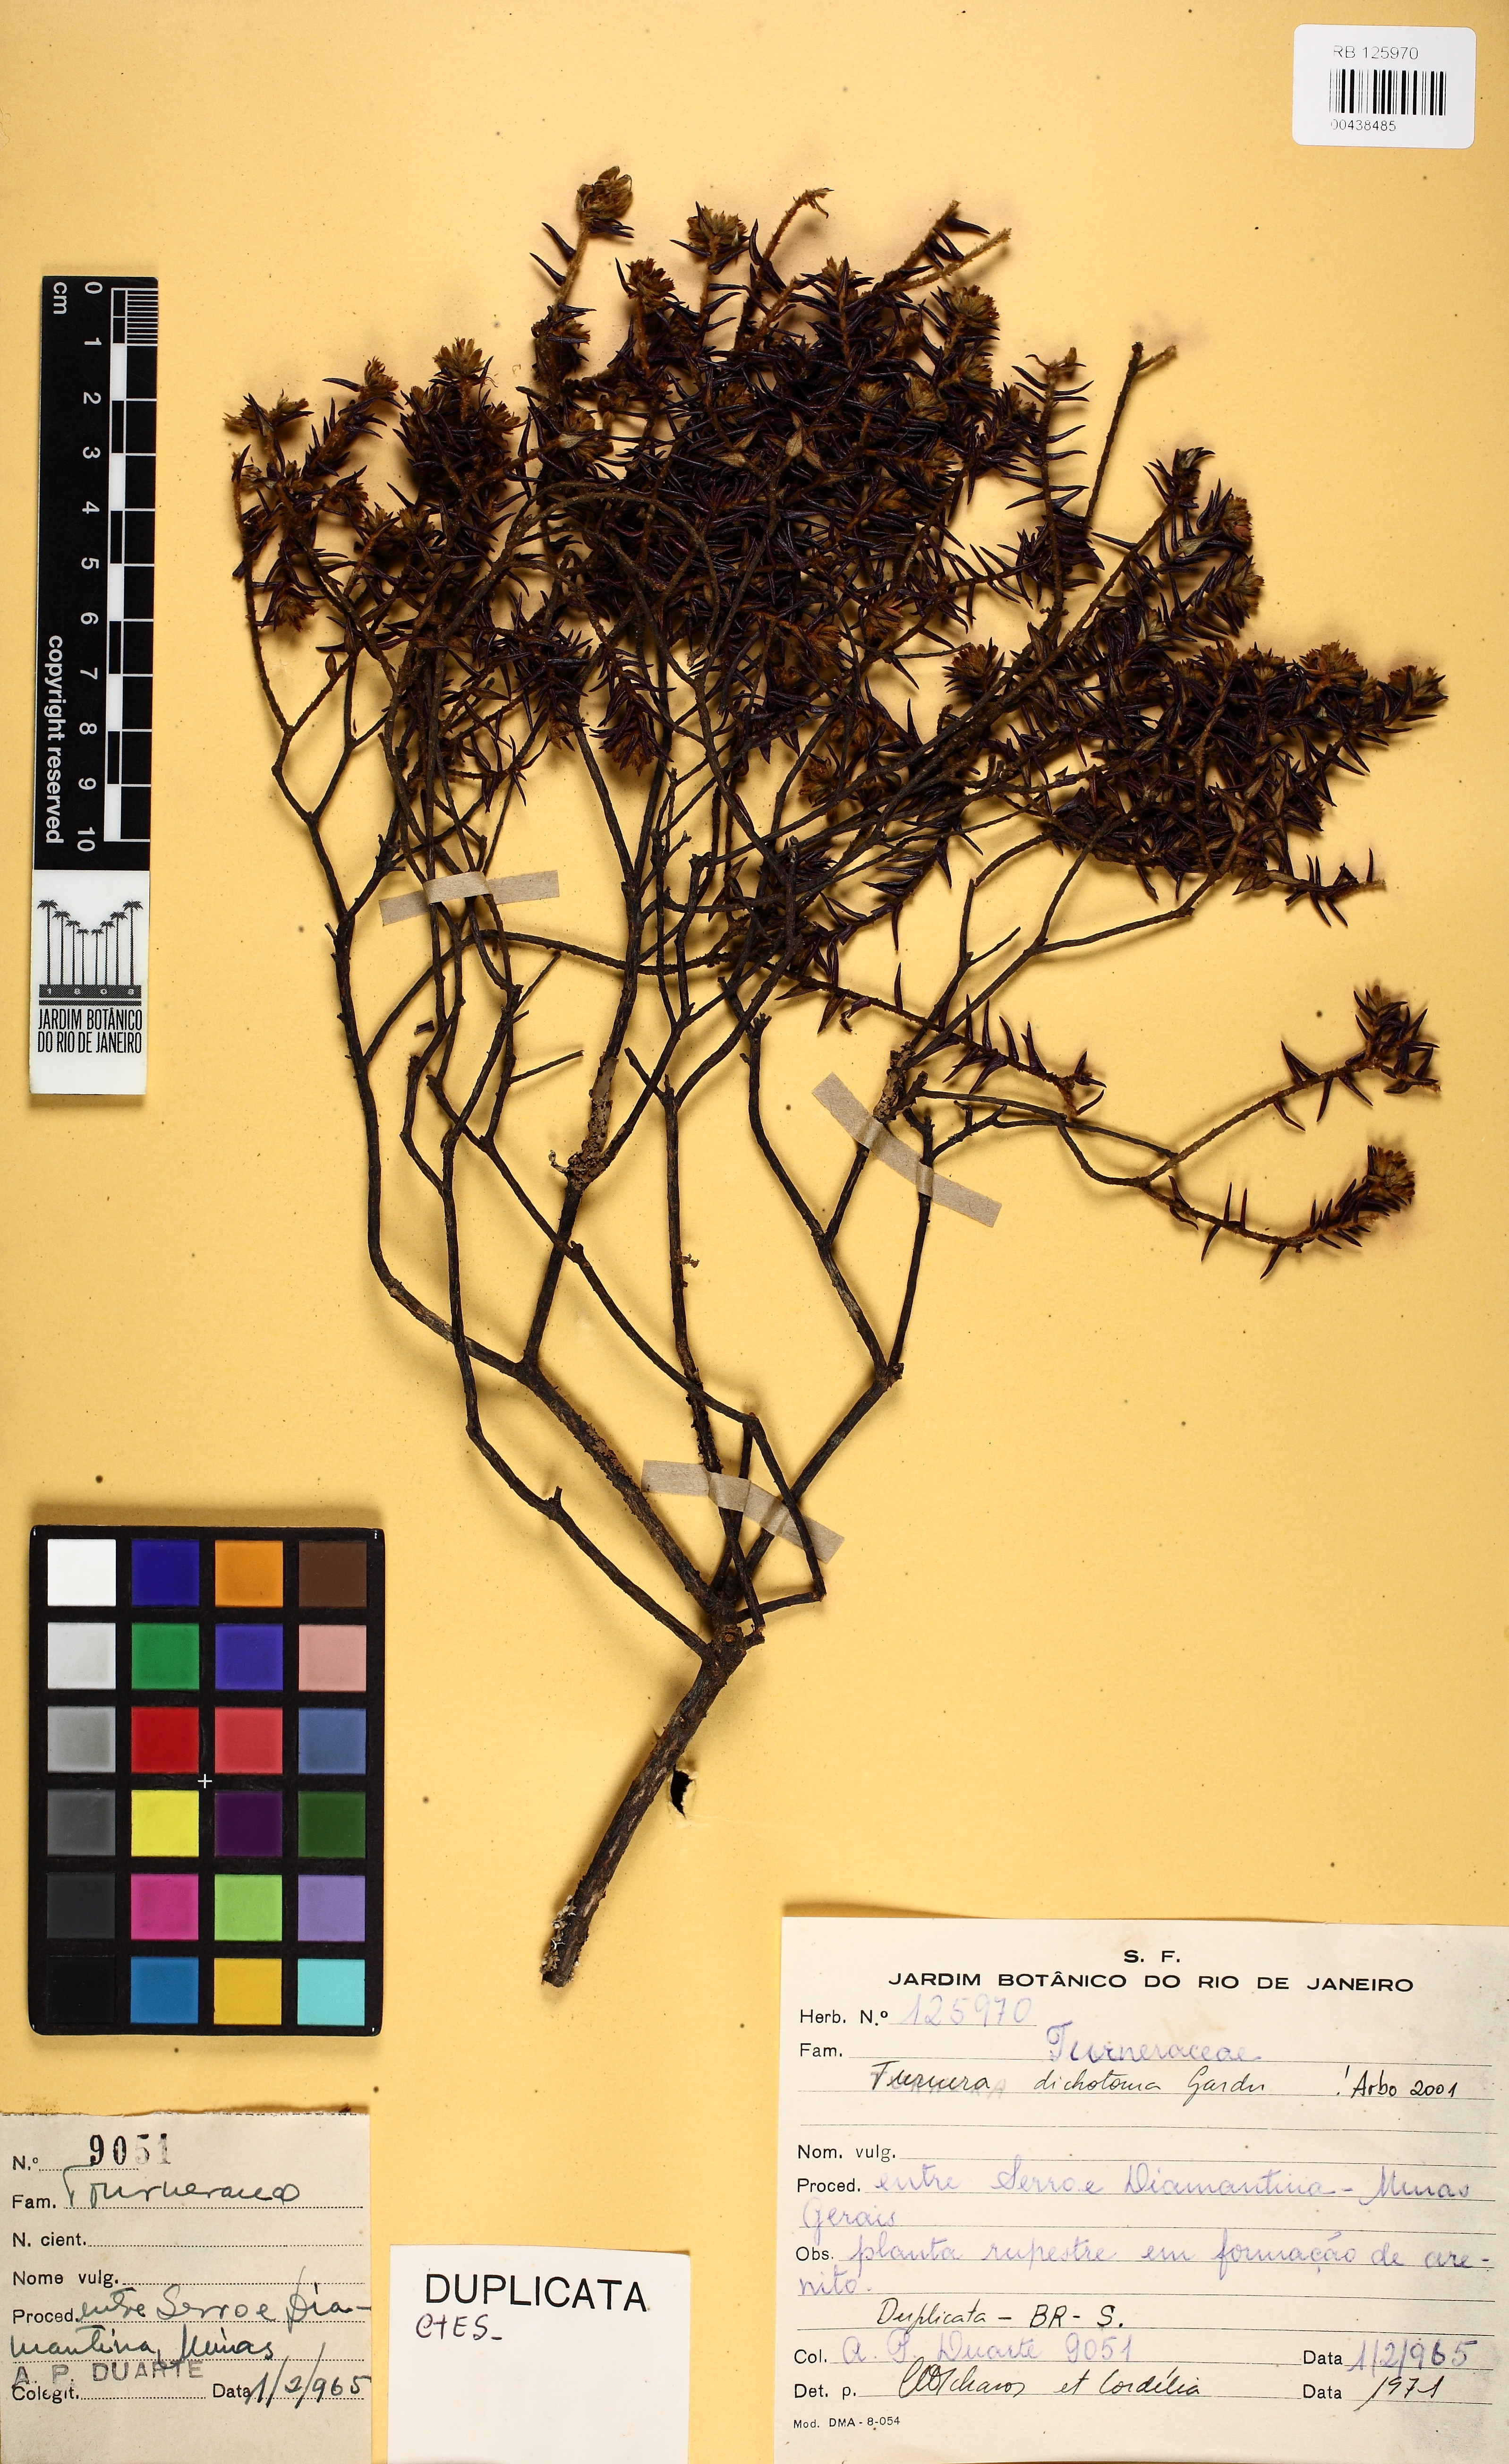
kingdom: Plantae
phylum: Tracheophyta
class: Magnoliopsida
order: Malpighiales
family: Turneraceae
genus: Turnera
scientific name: Turnera dichotoma
